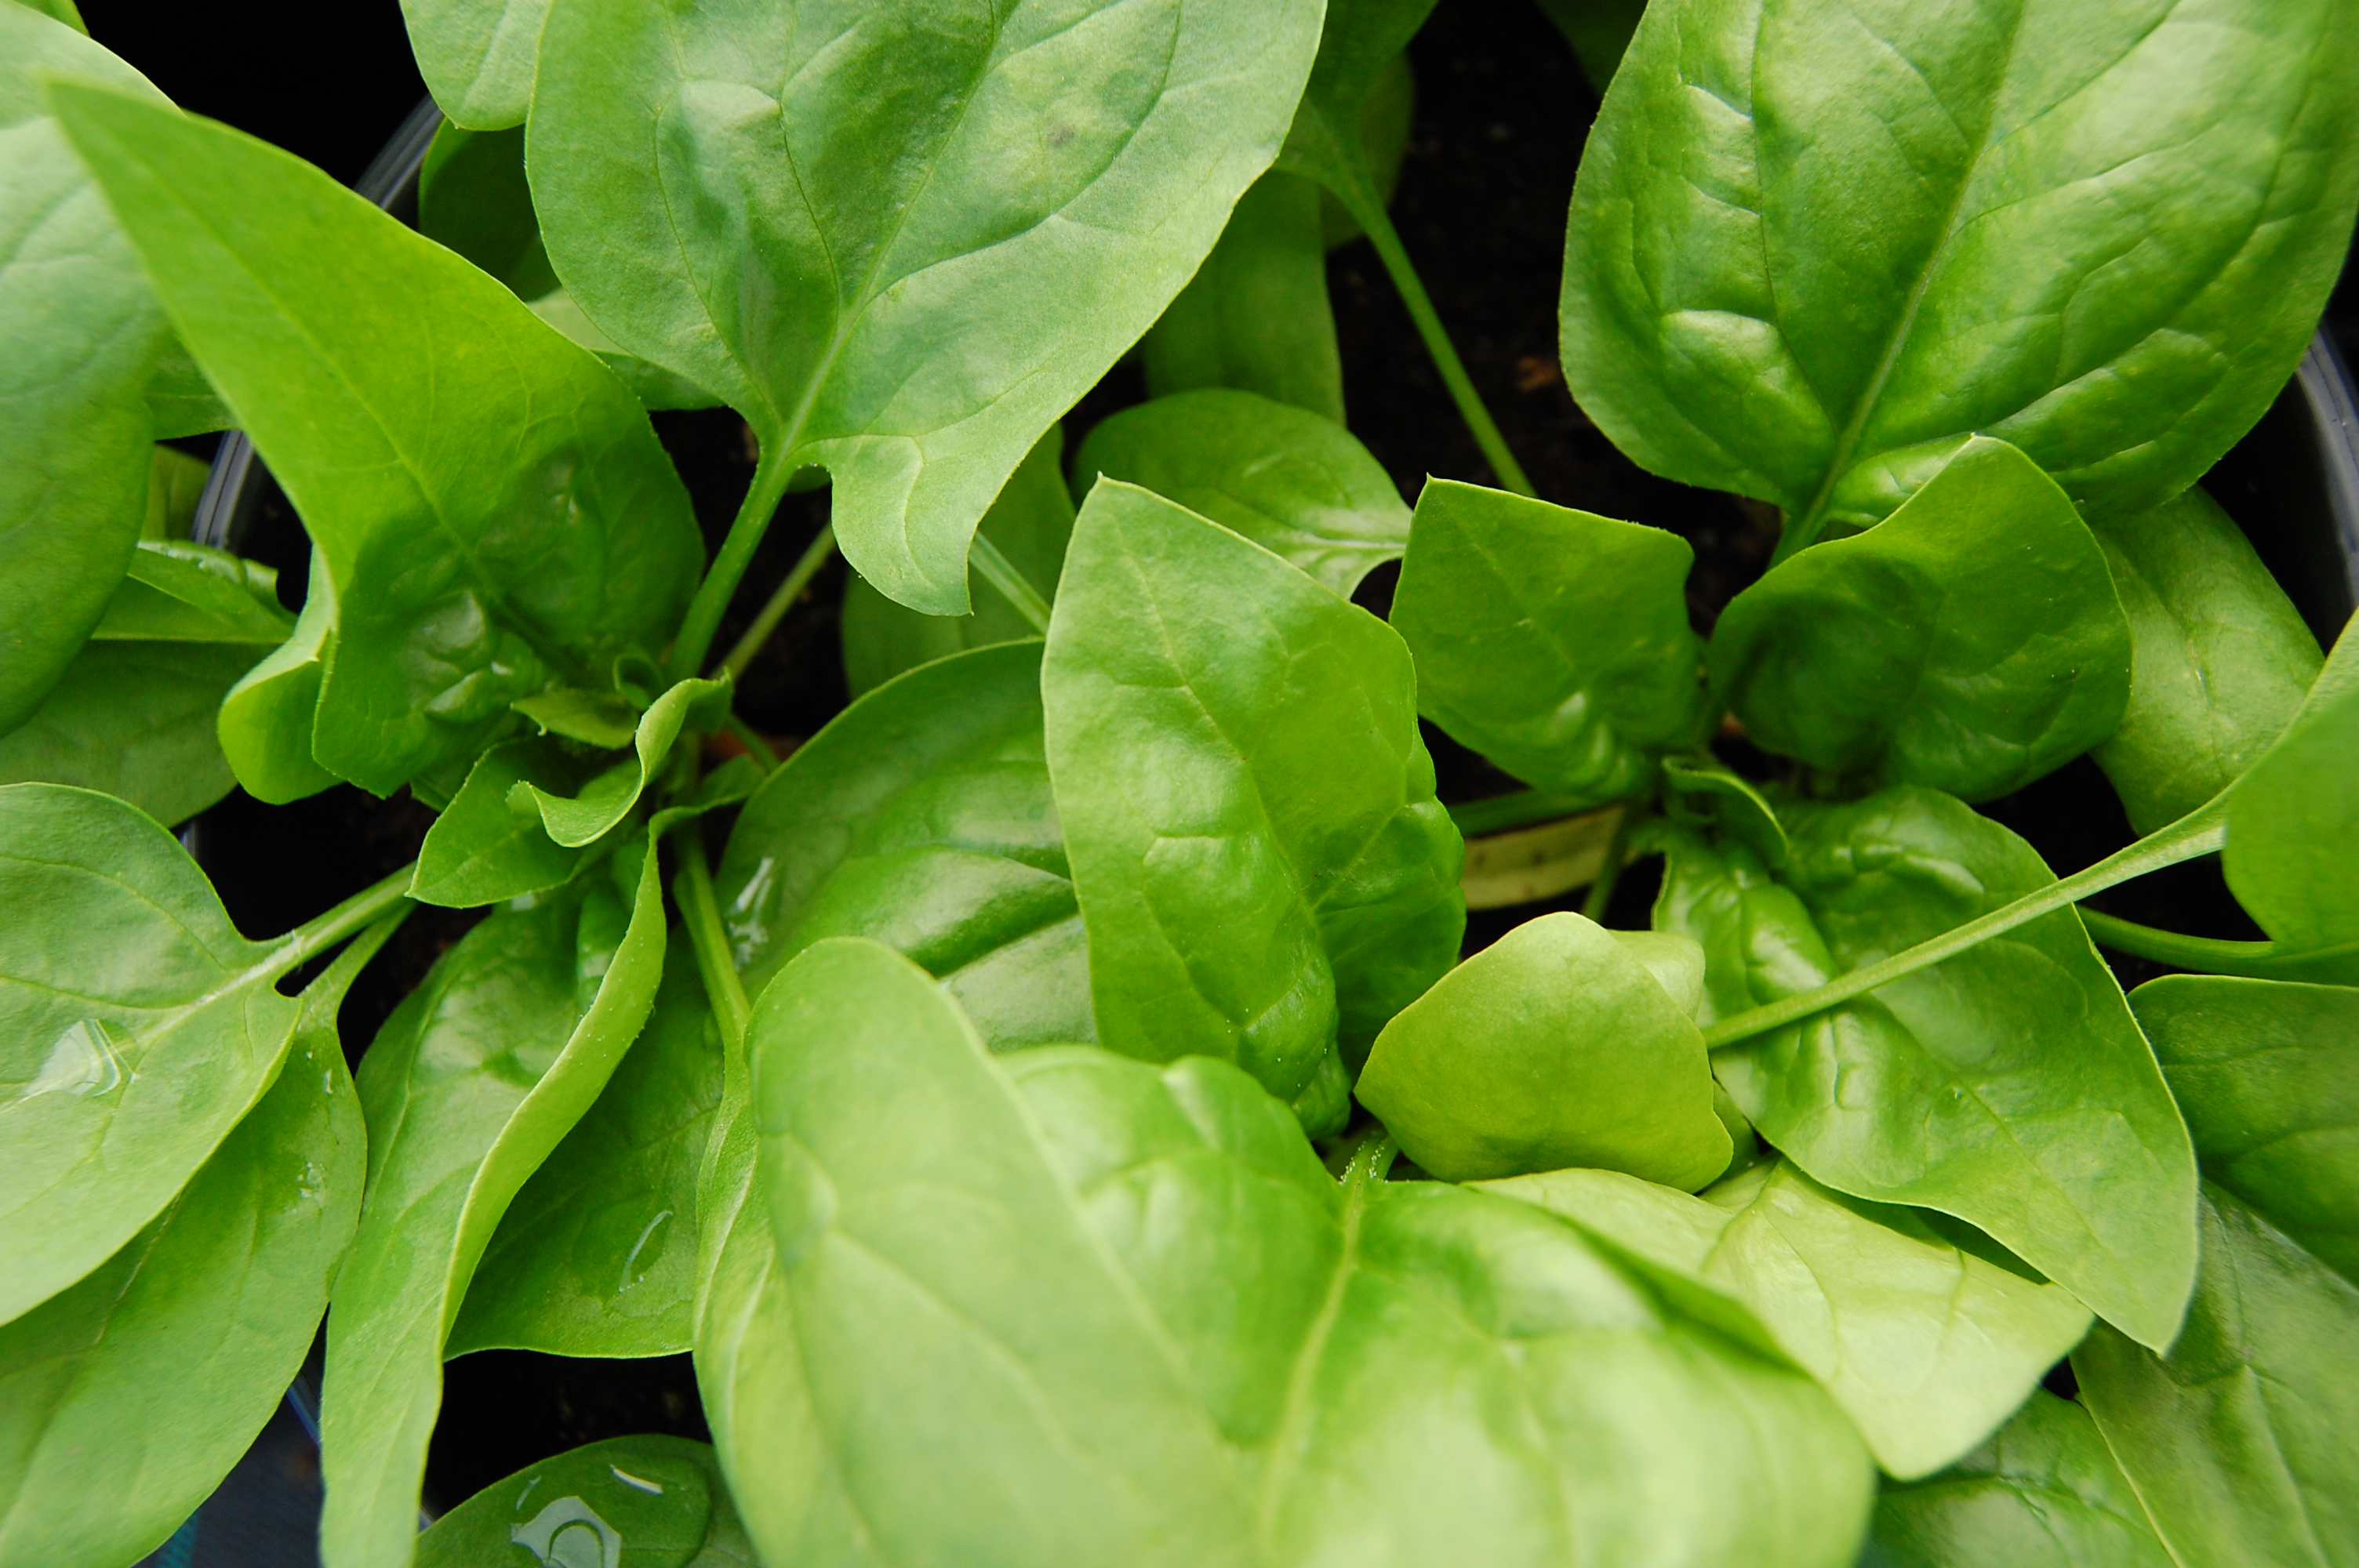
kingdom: Plantae
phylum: Tracheophyta
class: Magnoliopsida
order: Caryophyllales
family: Amaranthaceae
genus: Spinacia
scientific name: Spinacia oleracea
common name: Spinach
